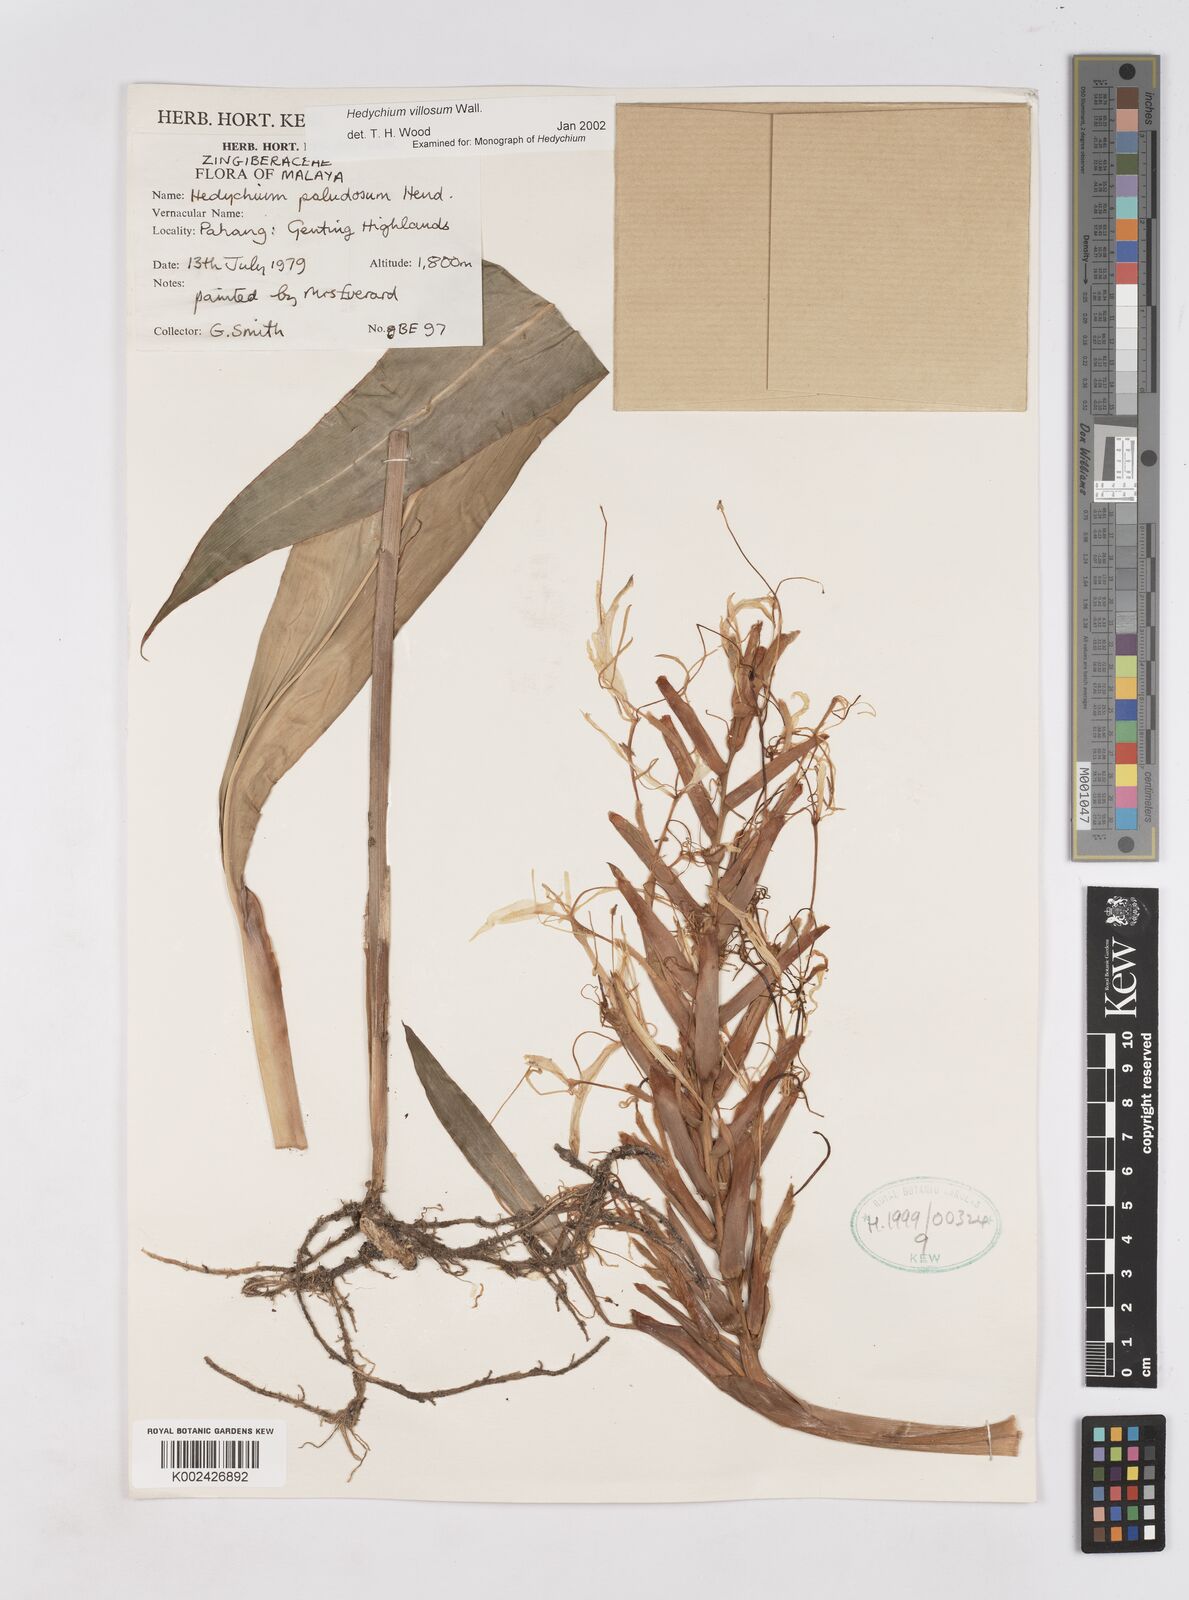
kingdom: Plantae
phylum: Tracheophyta
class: Liliopsida
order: Zingiberales
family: Zingiberaceae
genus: Hedychium
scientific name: Hedychium villosum
